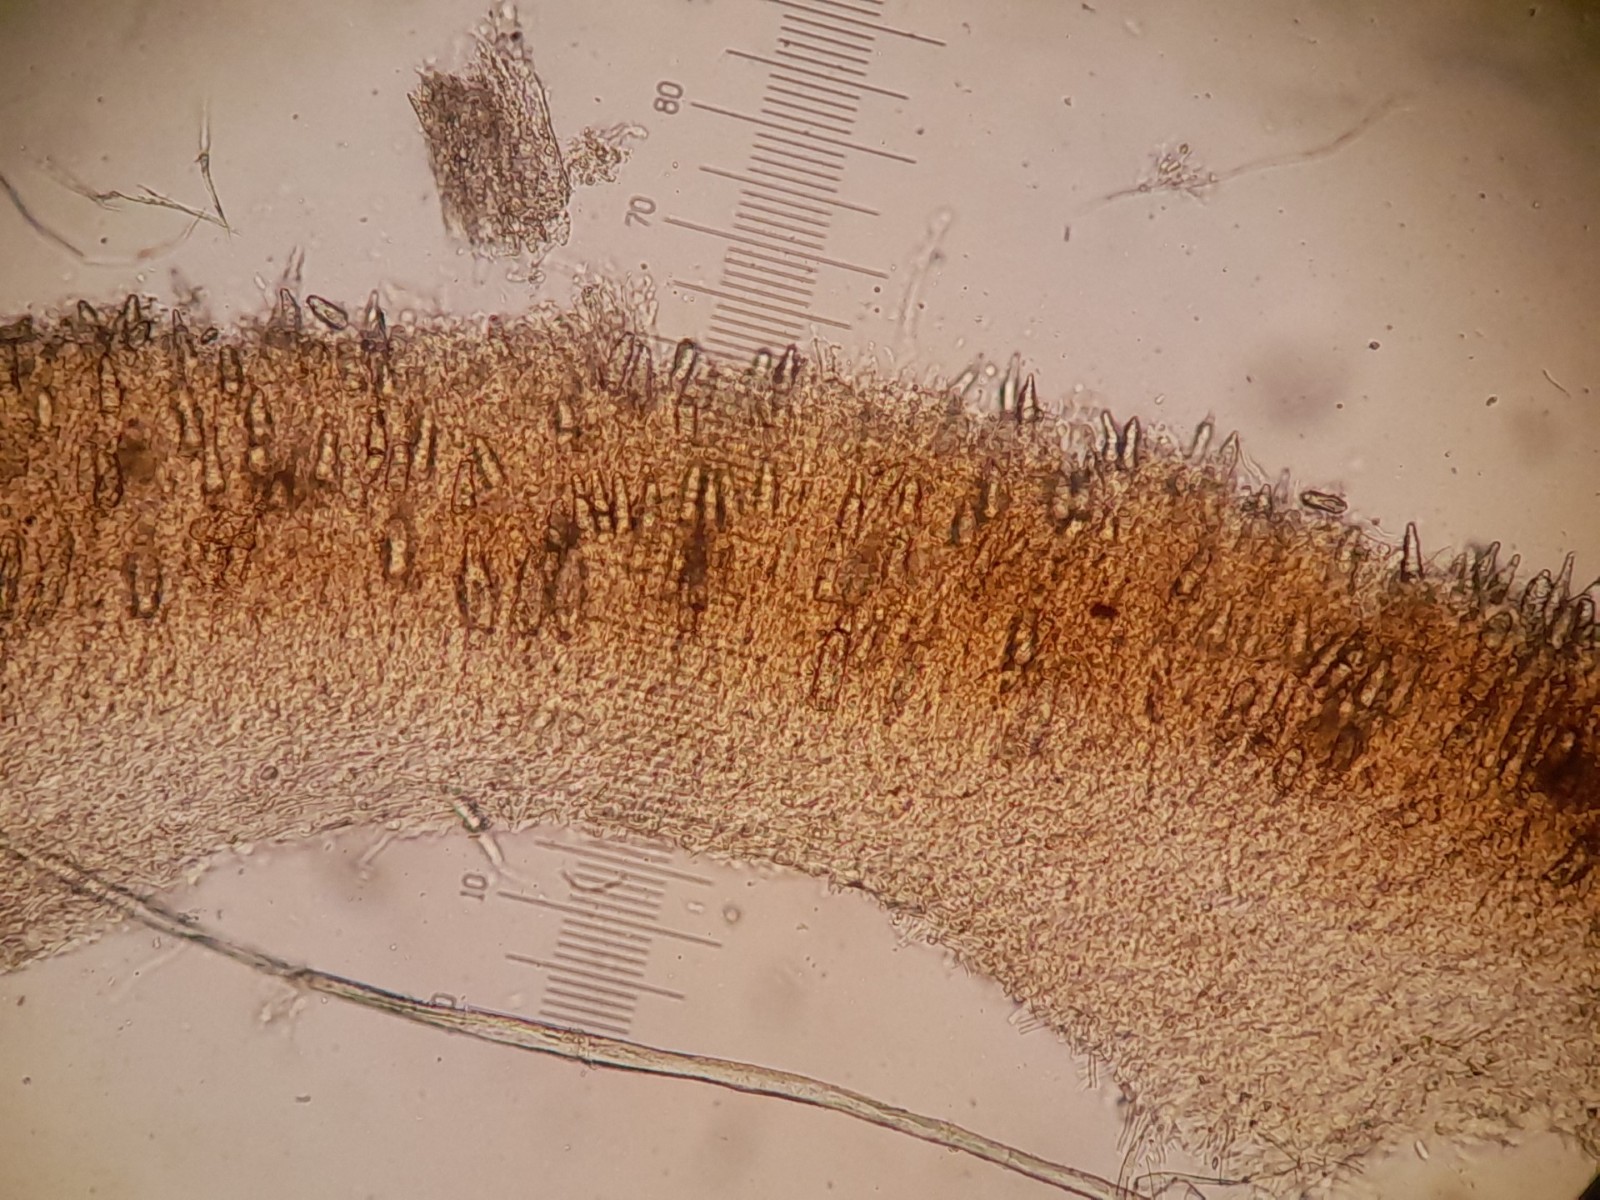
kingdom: Fungi
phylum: Basidiomycota
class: Agaricomycetes
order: Russulales
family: Peniophoraceae
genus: Peniophora
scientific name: Peniophora quercina
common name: ege-voksskind
